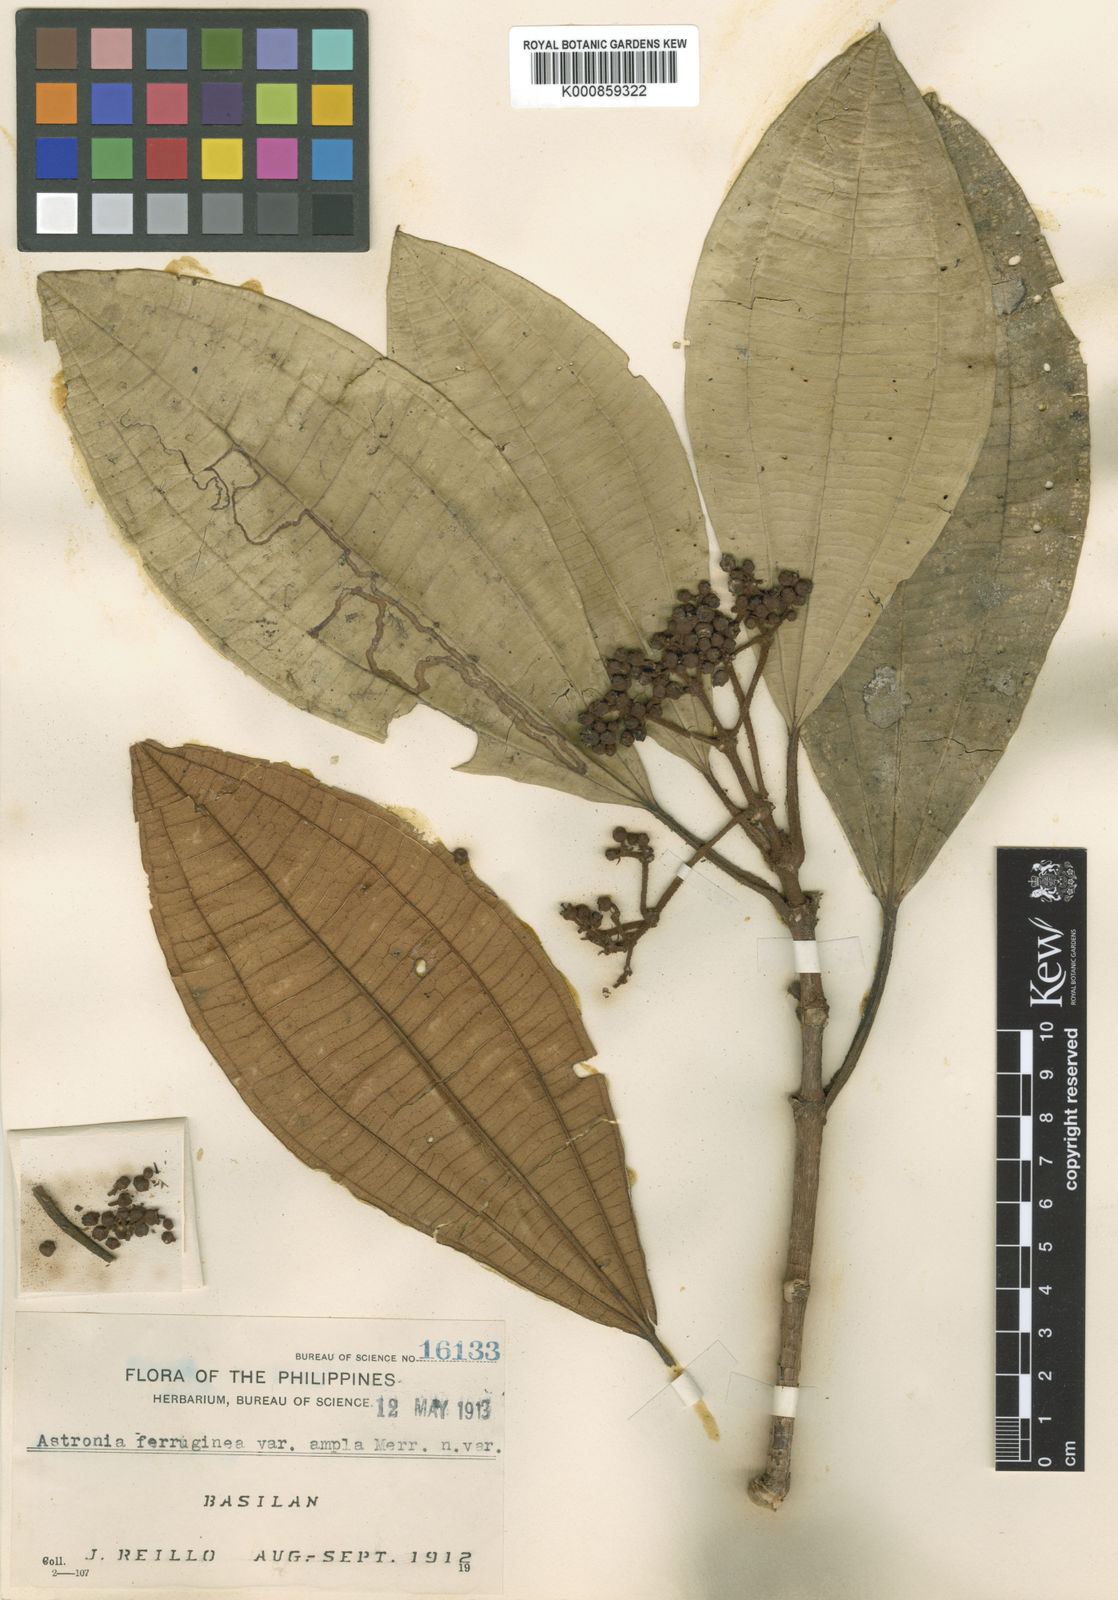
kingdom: Plantae
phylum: Tracheophyta
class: Magnoliopsida
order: Myrtales
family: Melastomataceae
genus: Astronia
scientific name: Astronia ferruginea
